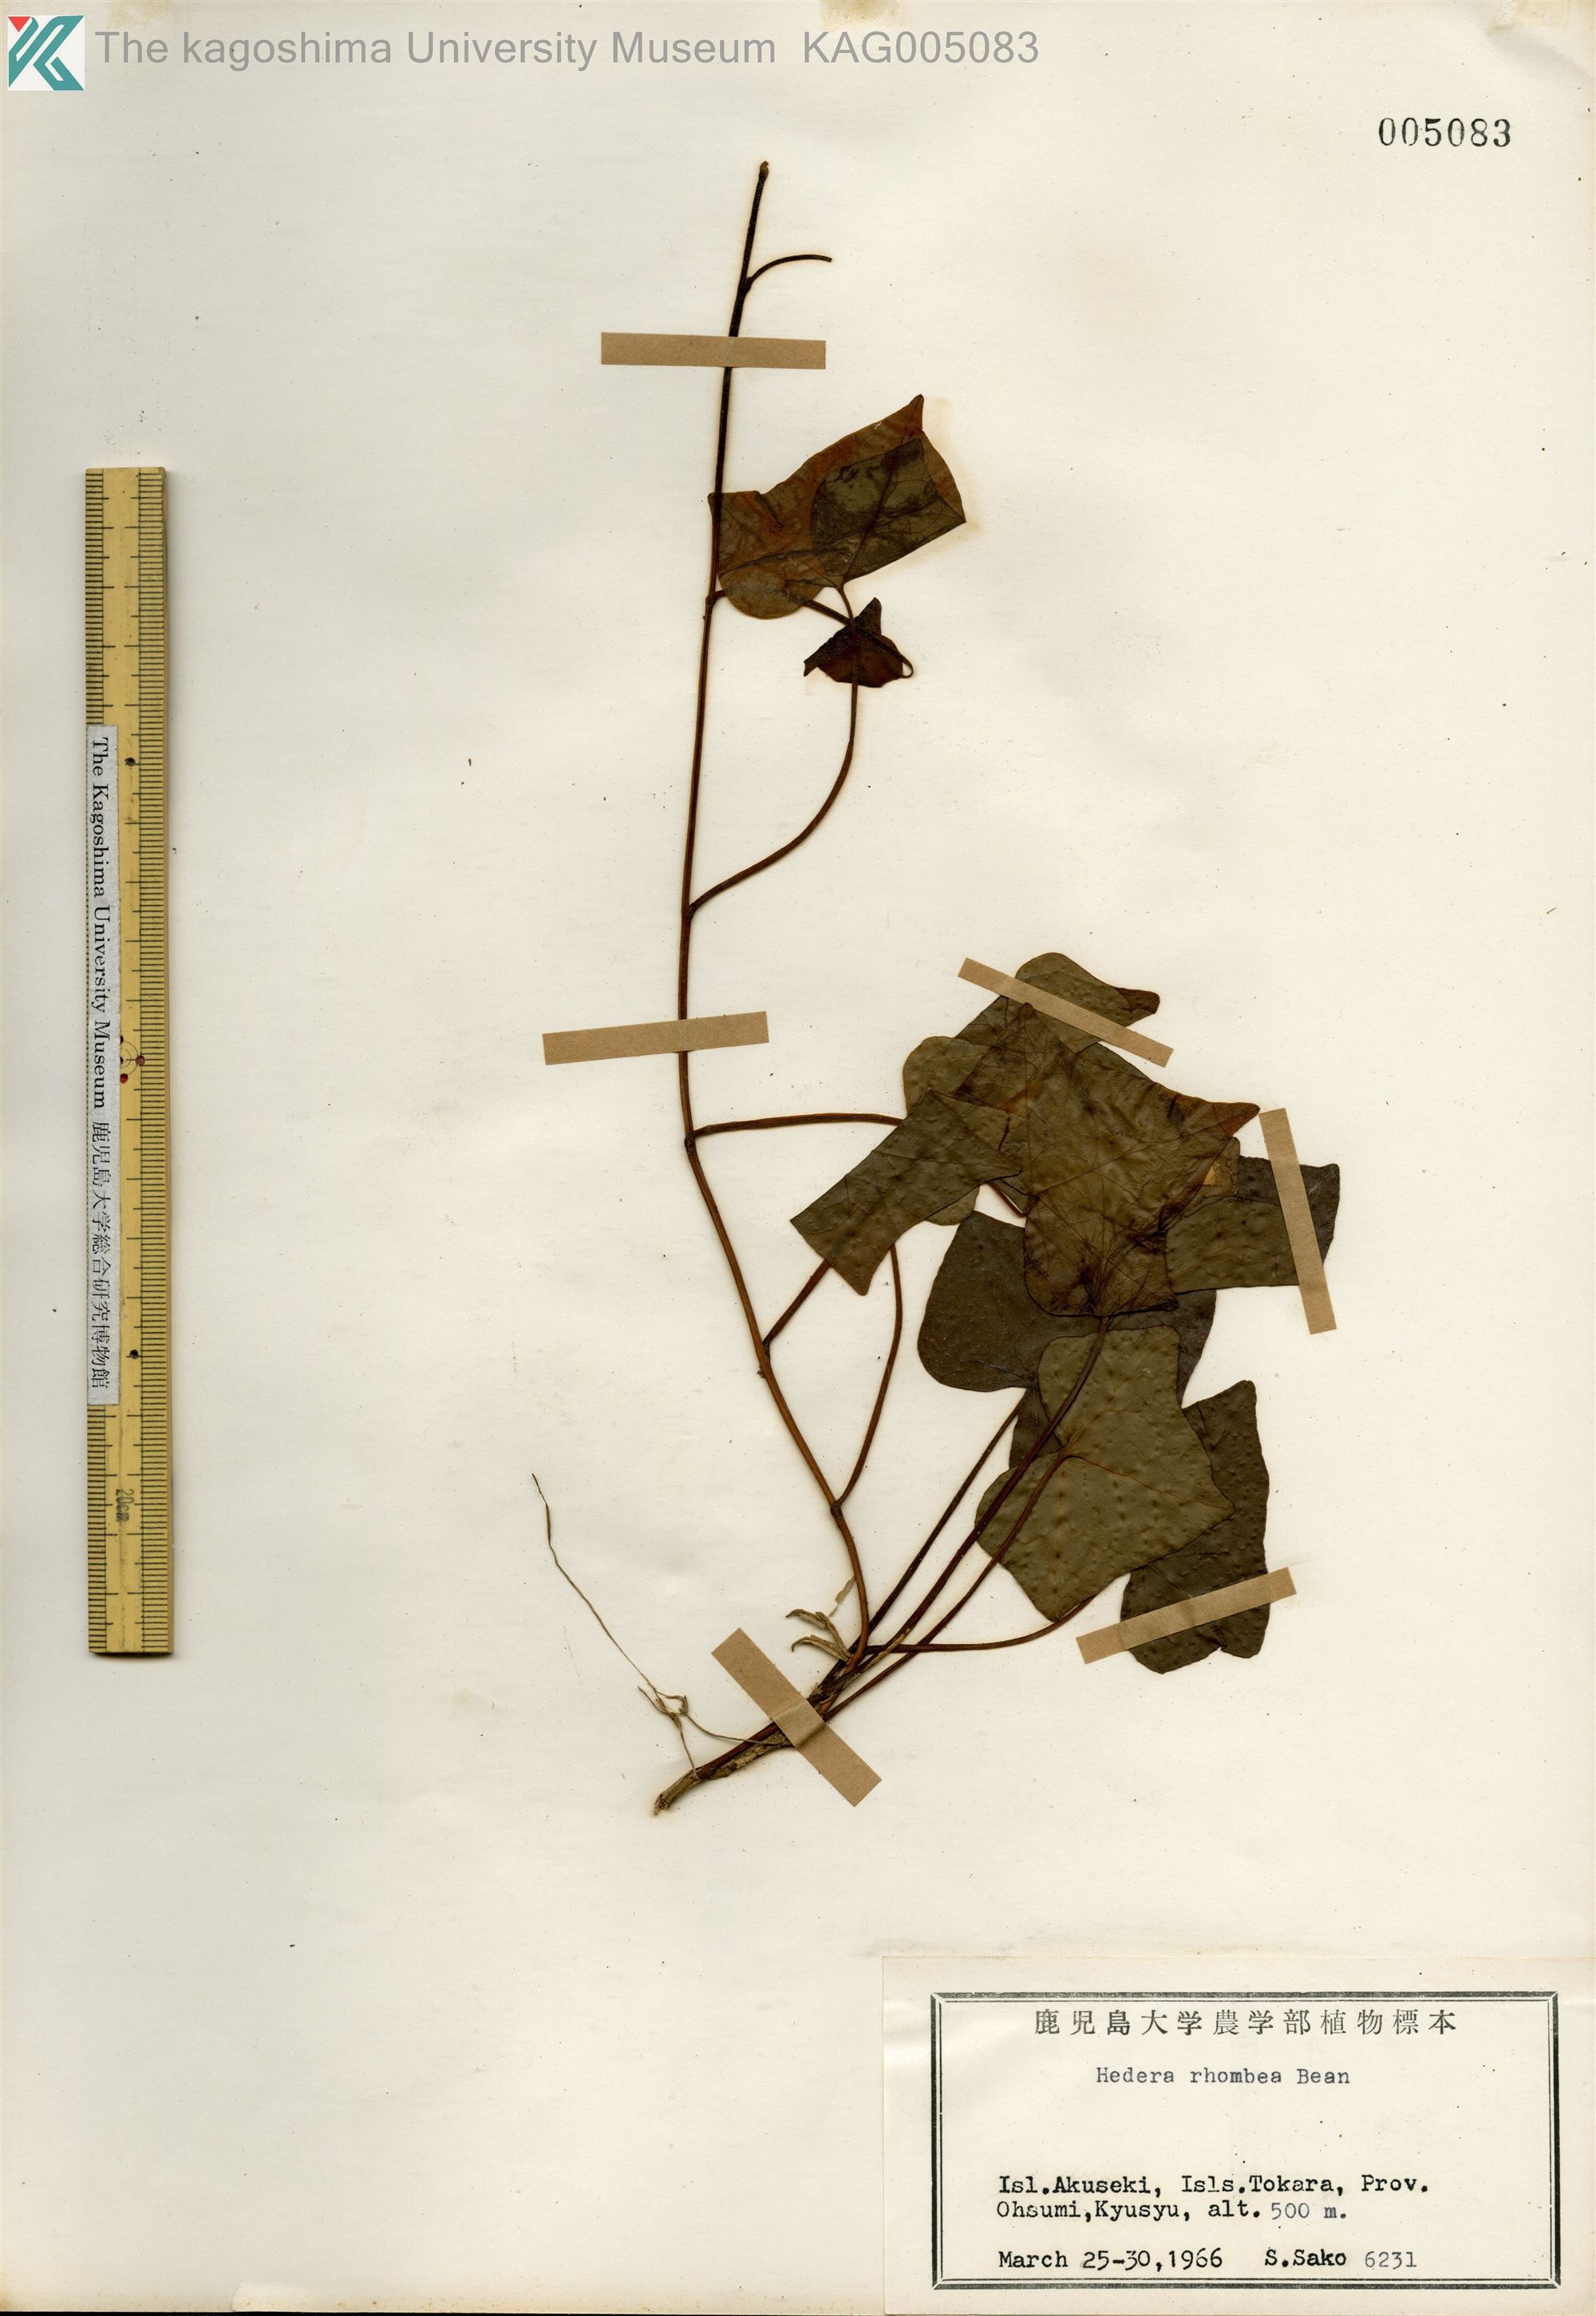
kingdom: Plantae
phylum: Tracheophyta
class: Magnoliopsida
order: Apiales
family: Araliaceae
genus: Hedera
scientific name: Hedera rhombea
